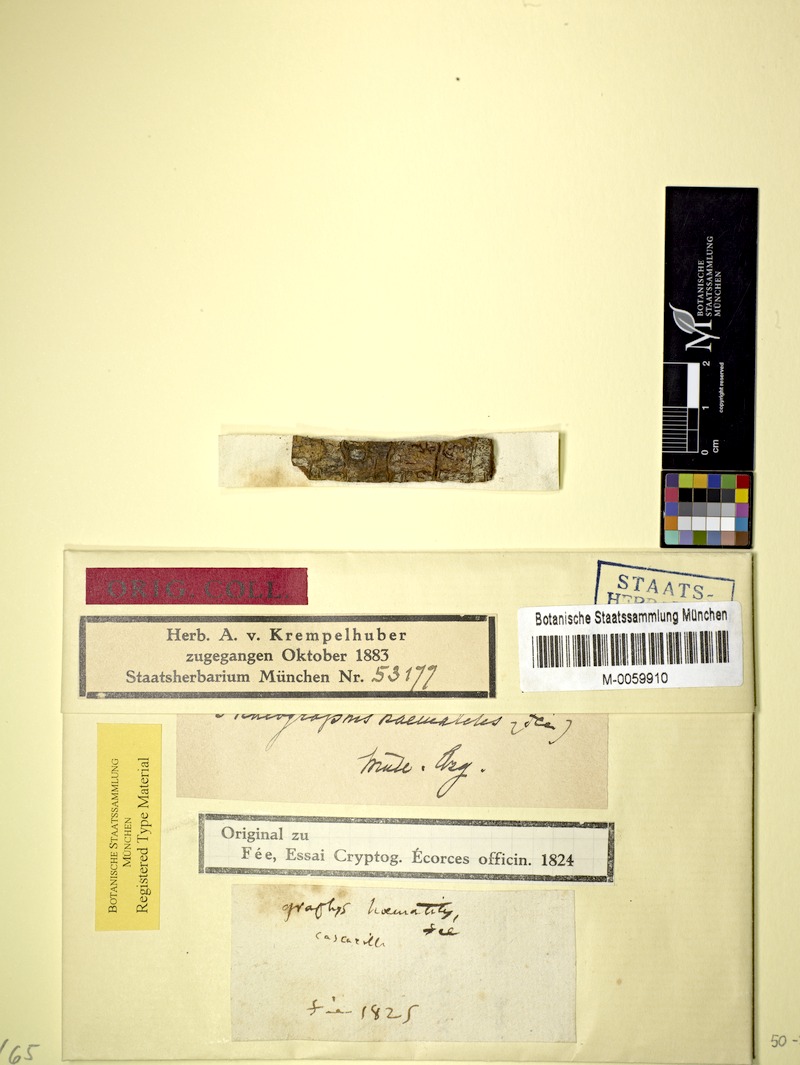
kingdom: Fungi
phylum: Ascomycota
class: Lecanoromycetes
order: Ostropales
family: Graphidaceae
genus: Phaeographis
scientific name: Phaeographis haematites
